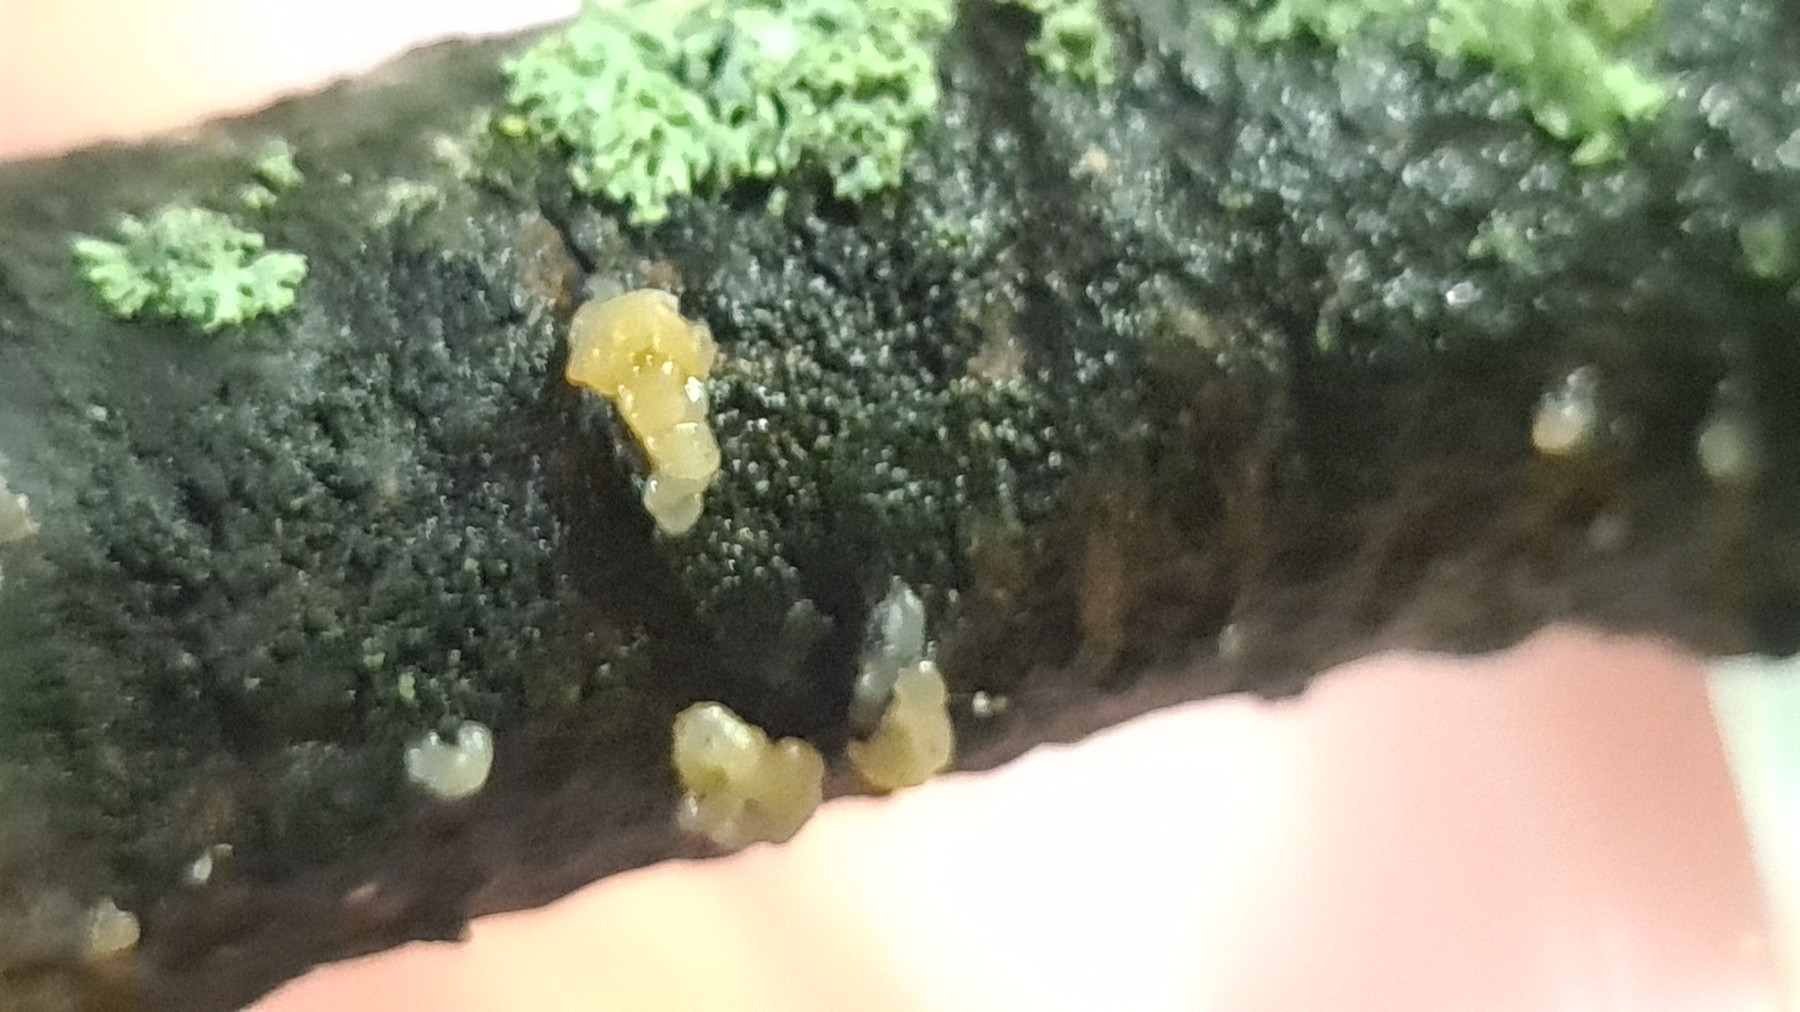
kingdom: Fungi
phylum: Basidiomycota
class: Agaricomycetes
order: Auriculariales
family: Hyaloriaceae
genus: Myxarium
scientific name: Myxarium
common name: bævretop
